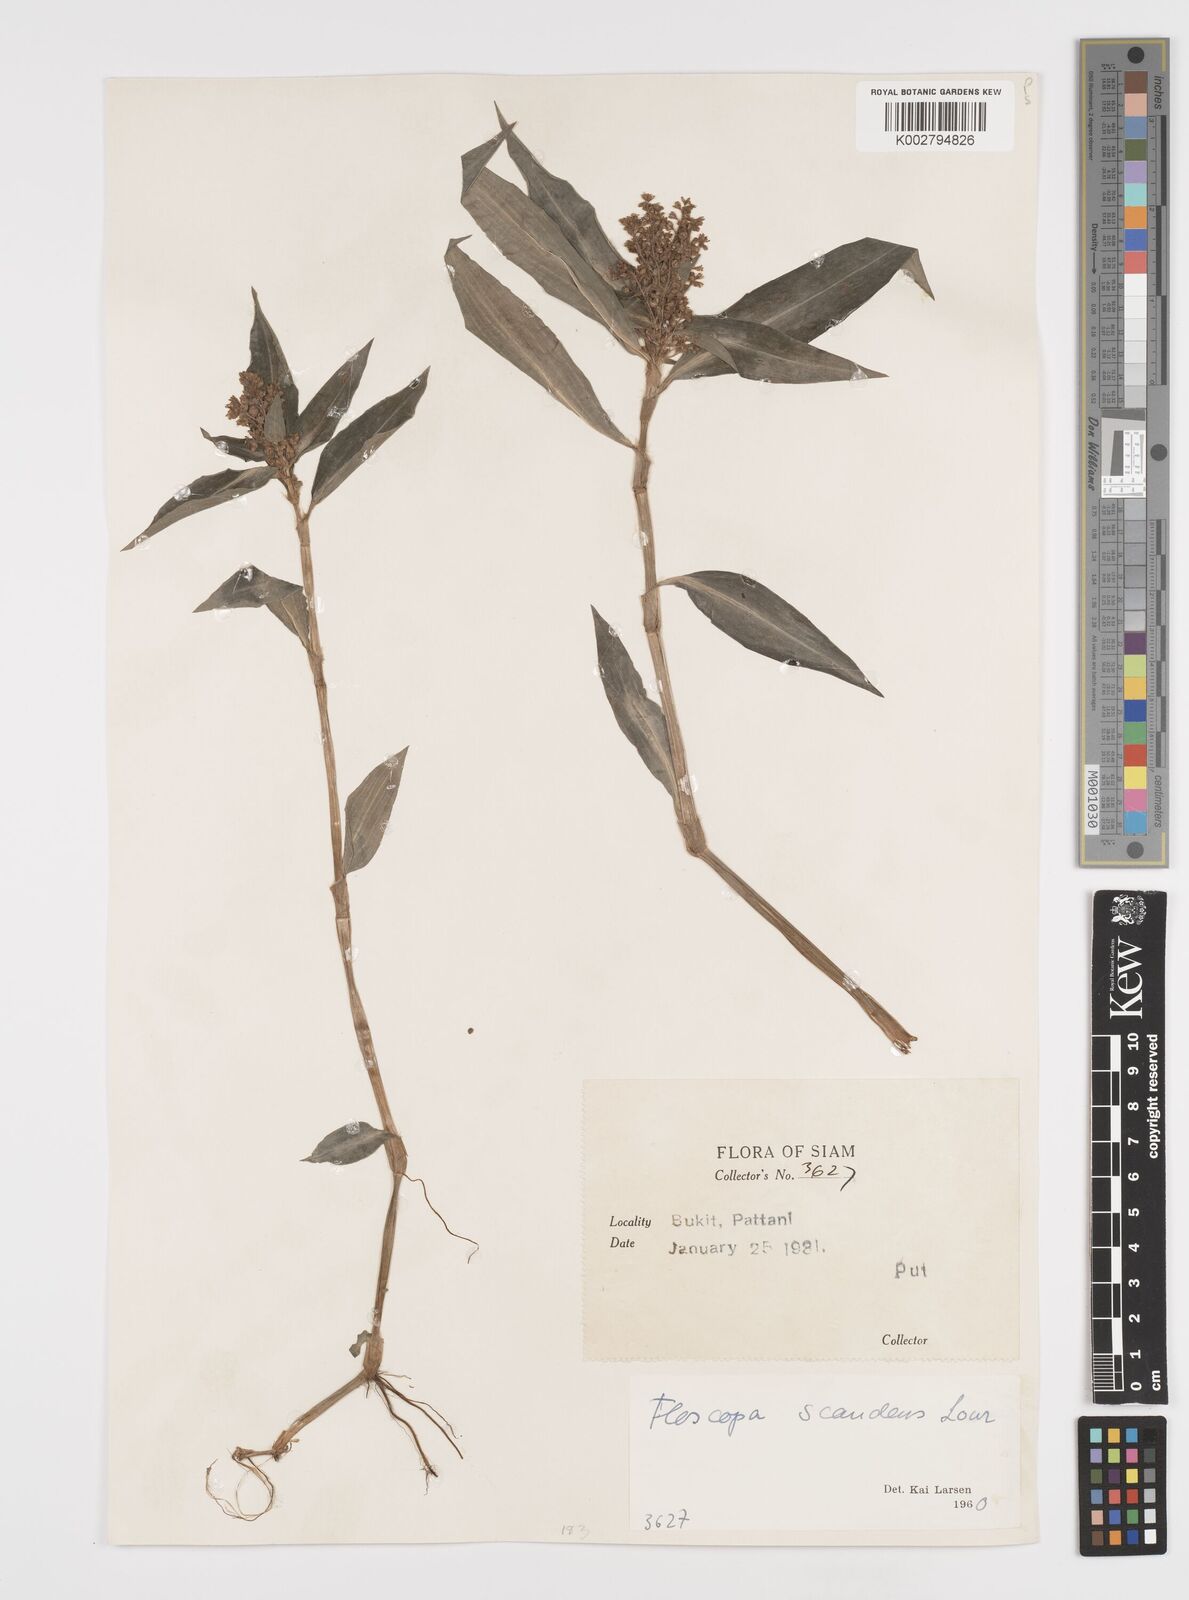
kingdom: Plantae
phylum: Tracheophyta
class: Liliopsida
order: Commelinales
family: Commelinaceae
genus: Floscopa
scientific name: Floscopa scandens
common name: Climbing flower cup
